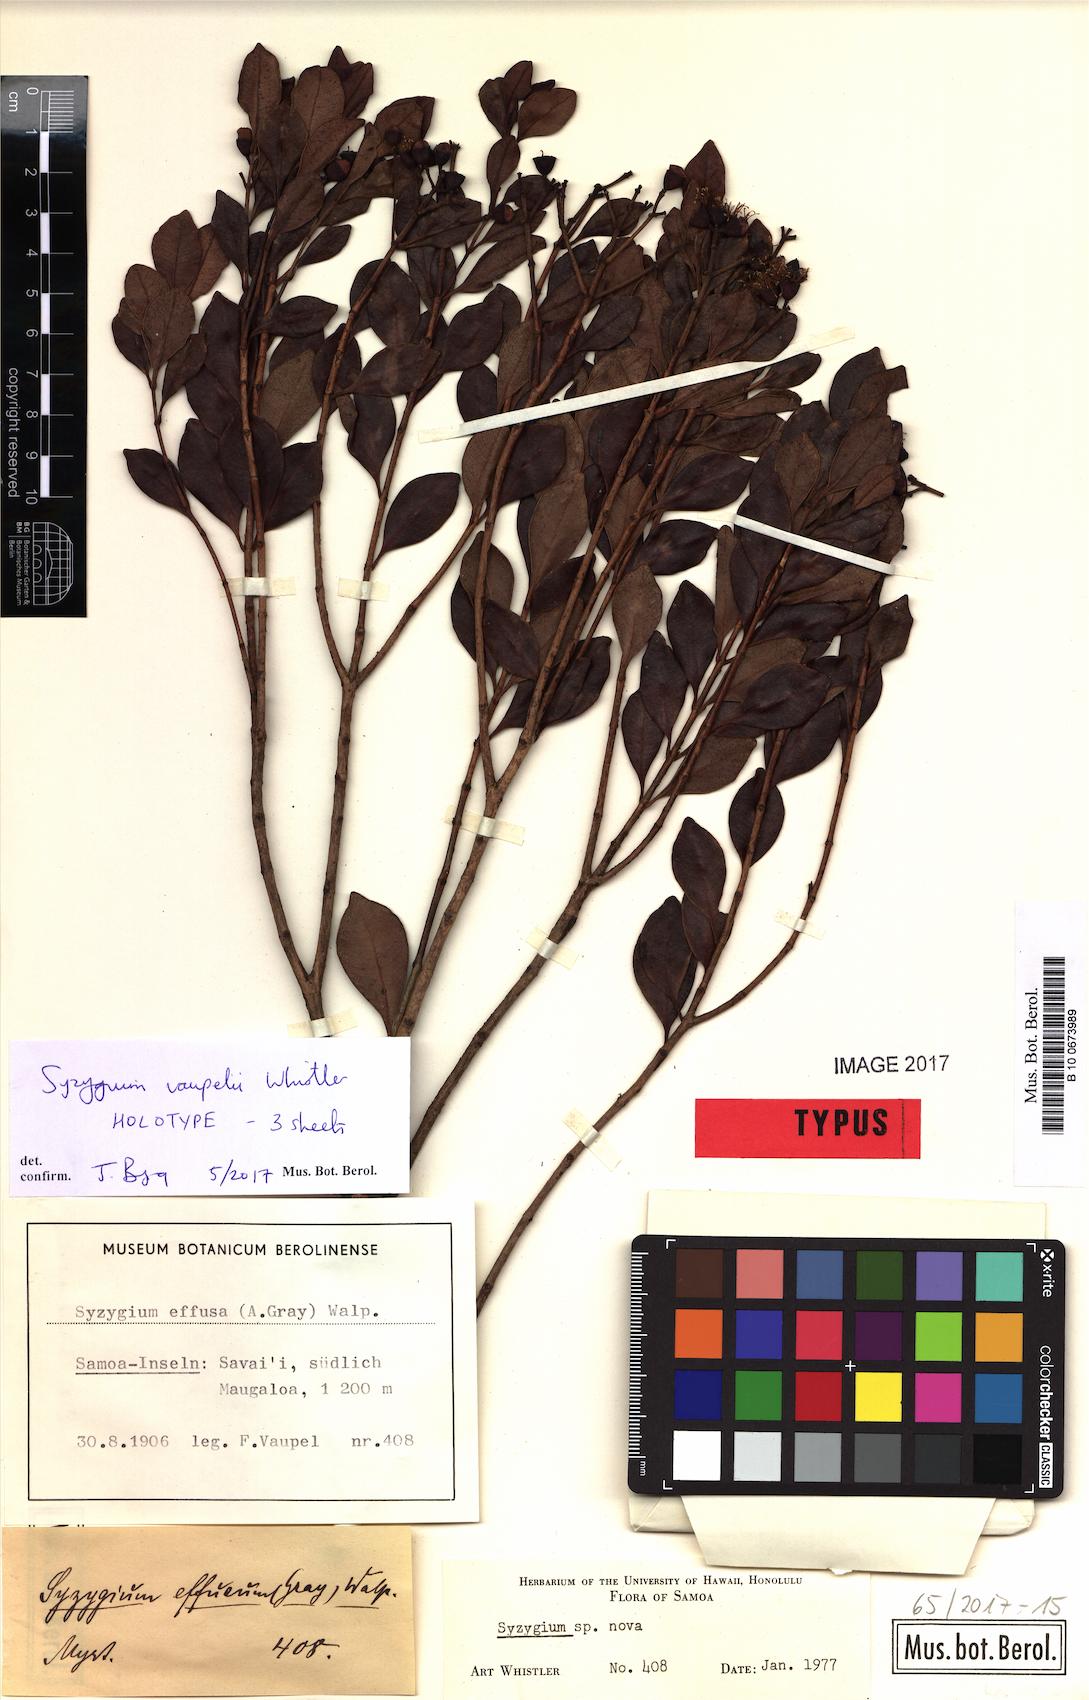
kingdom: Plantae
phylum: Tracheophyta
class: Magnoliopsida
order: Myrtales
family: Myrtaceae
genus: Syzygium
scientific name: Syzygium vaupelii
